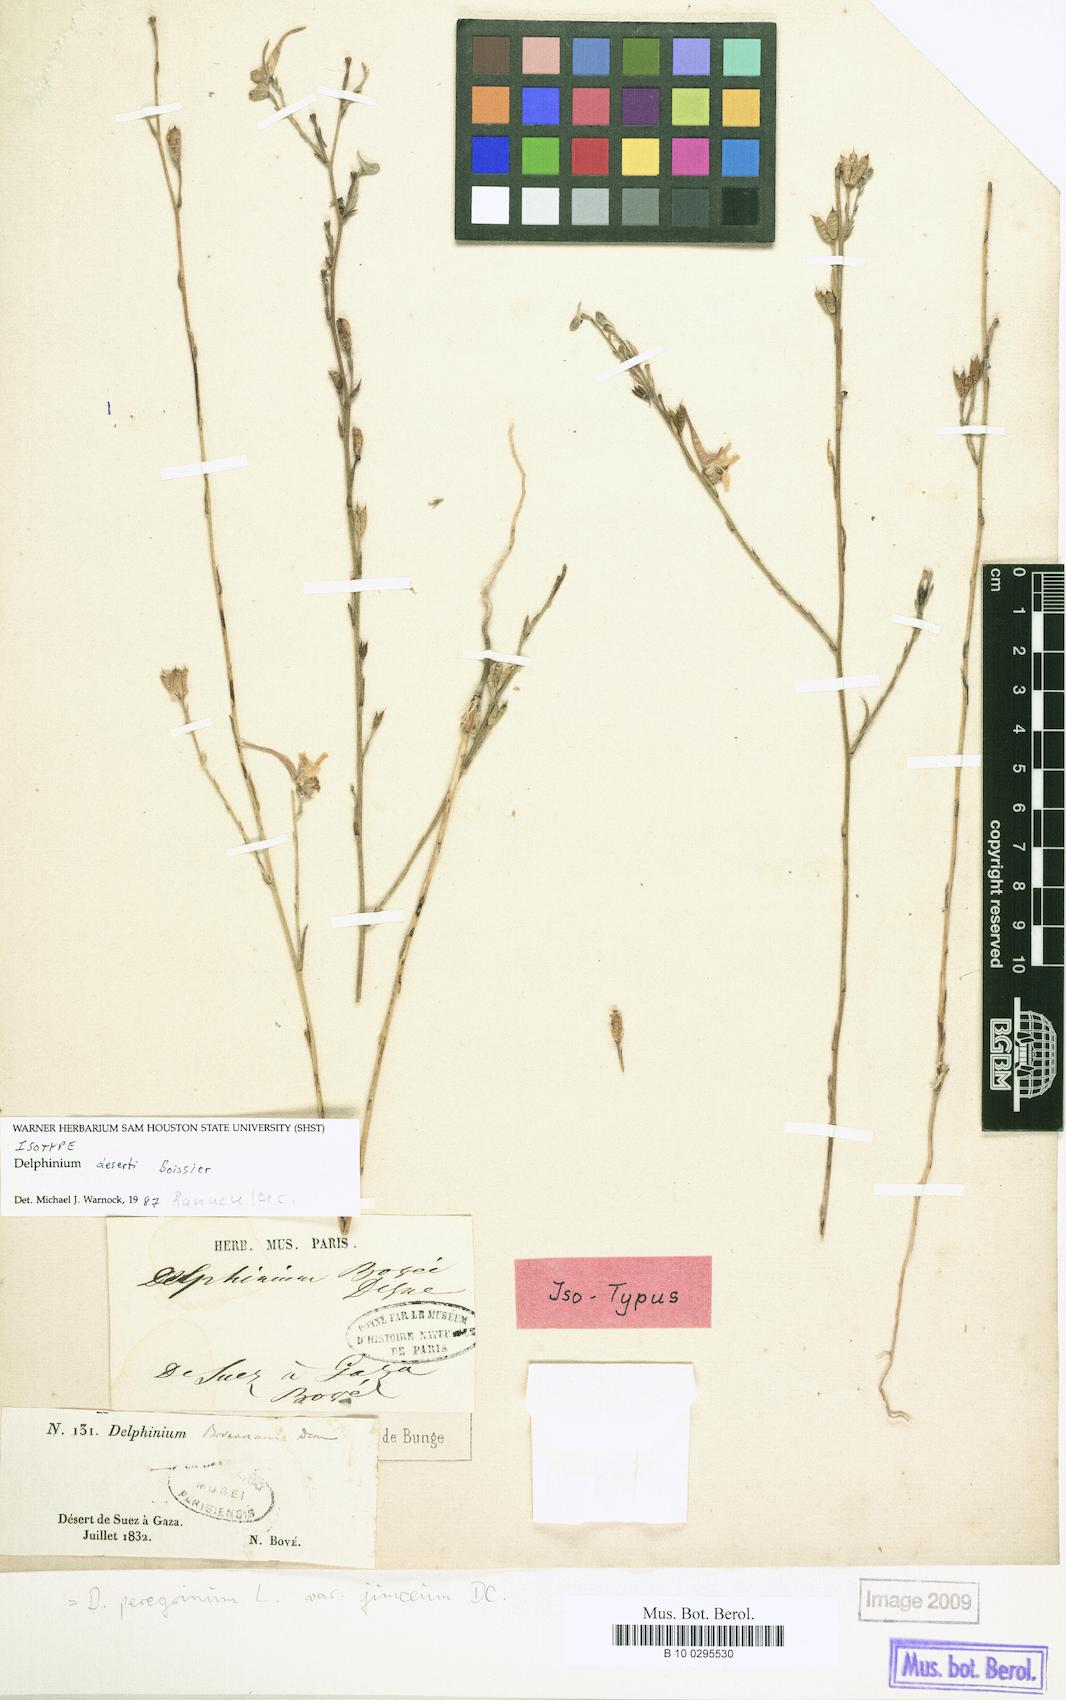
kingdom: Plantae
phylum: Tracheophyta
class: Magnoliopsida
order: Ranunculales
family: Ranunculaceae
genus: Delphinium
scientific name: Delphinium flavum
